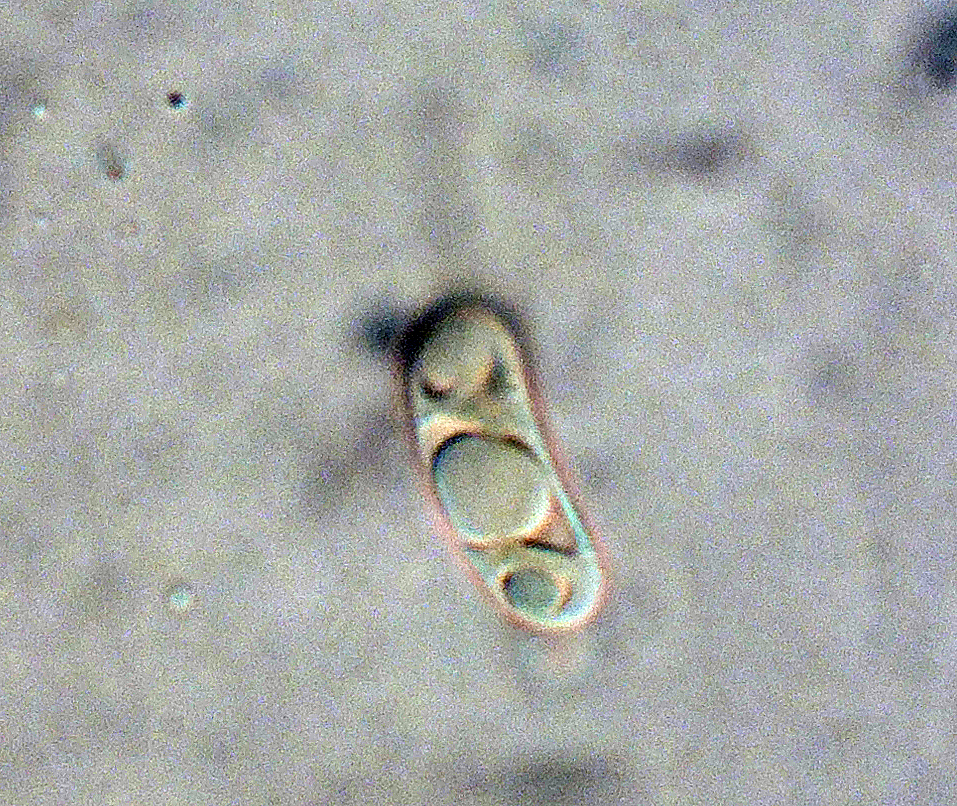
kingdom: Fungi
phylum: Basidiomycota
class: Agaricomycetes
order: Auriculariales
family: Auriculariaceae
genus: Exidiopsis
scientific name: Exidiopsis leucophaea
